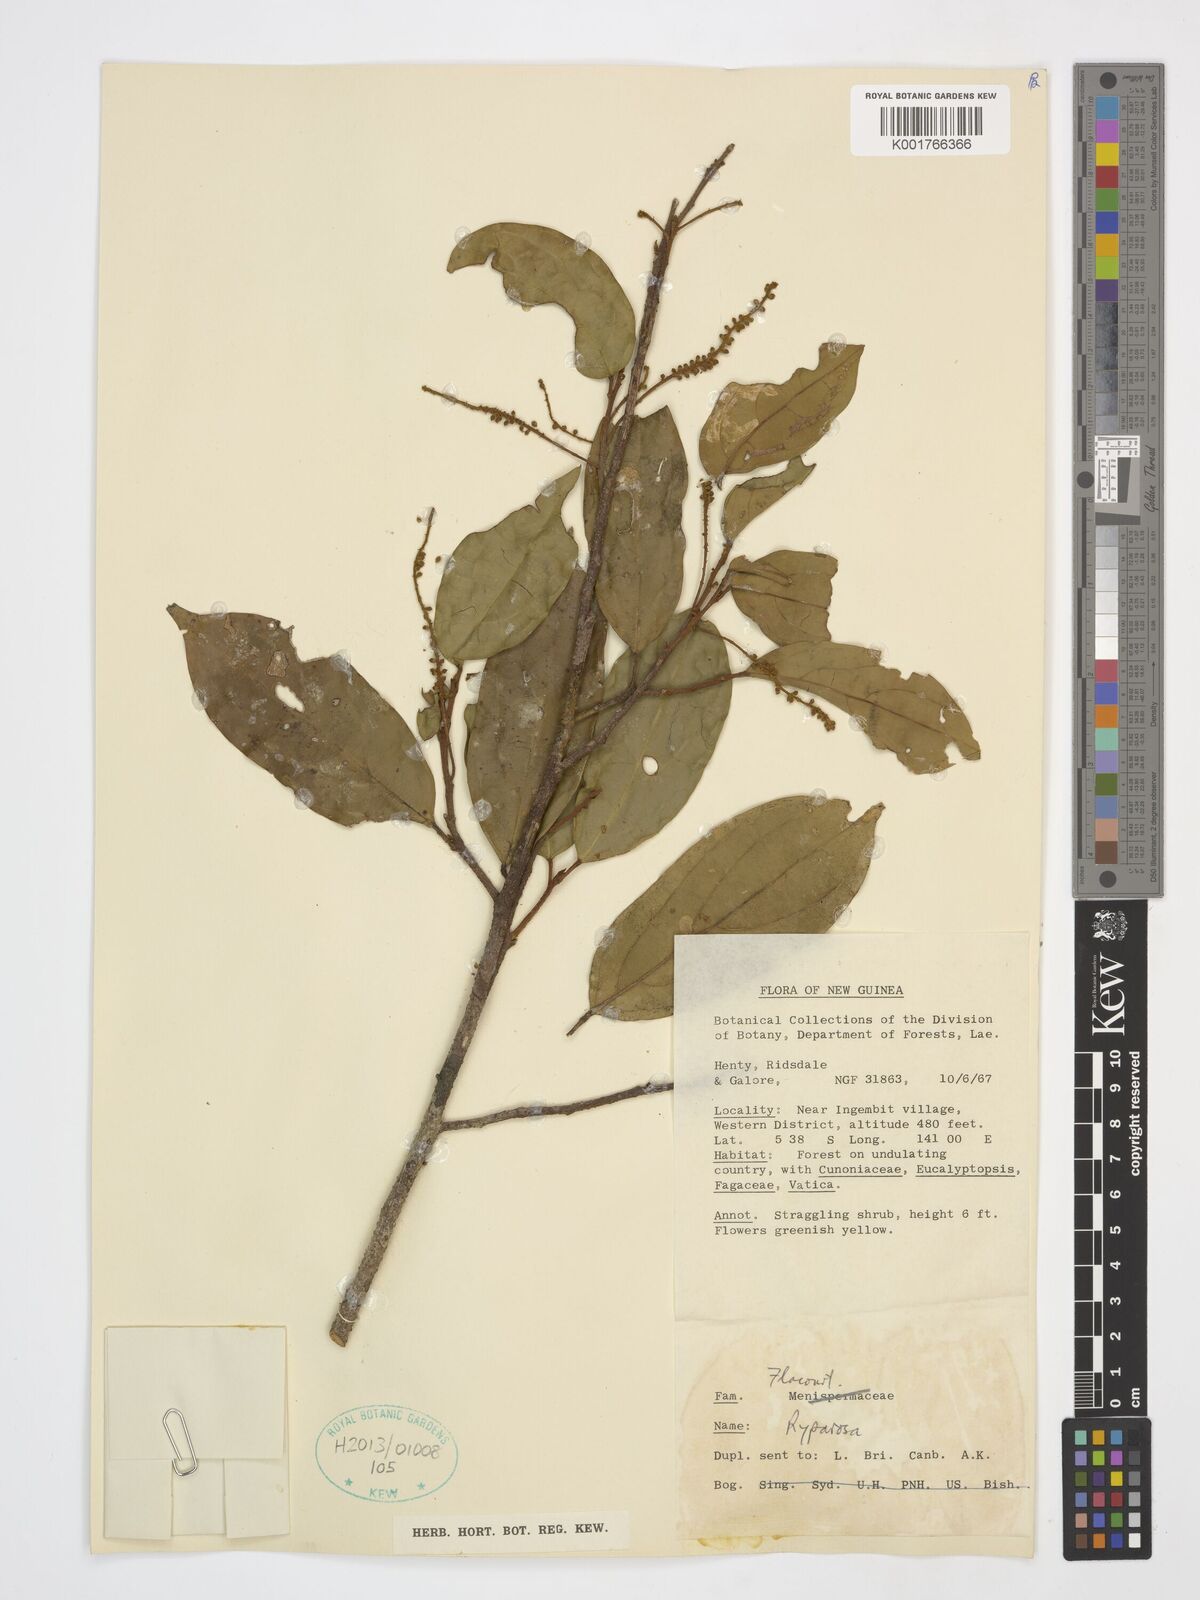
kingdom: Plantae
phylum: Tracheophyta
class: Magnoliopsida
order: Malpighiales
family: Achariaceae
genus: Ryparosa
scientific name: Ryparosa
